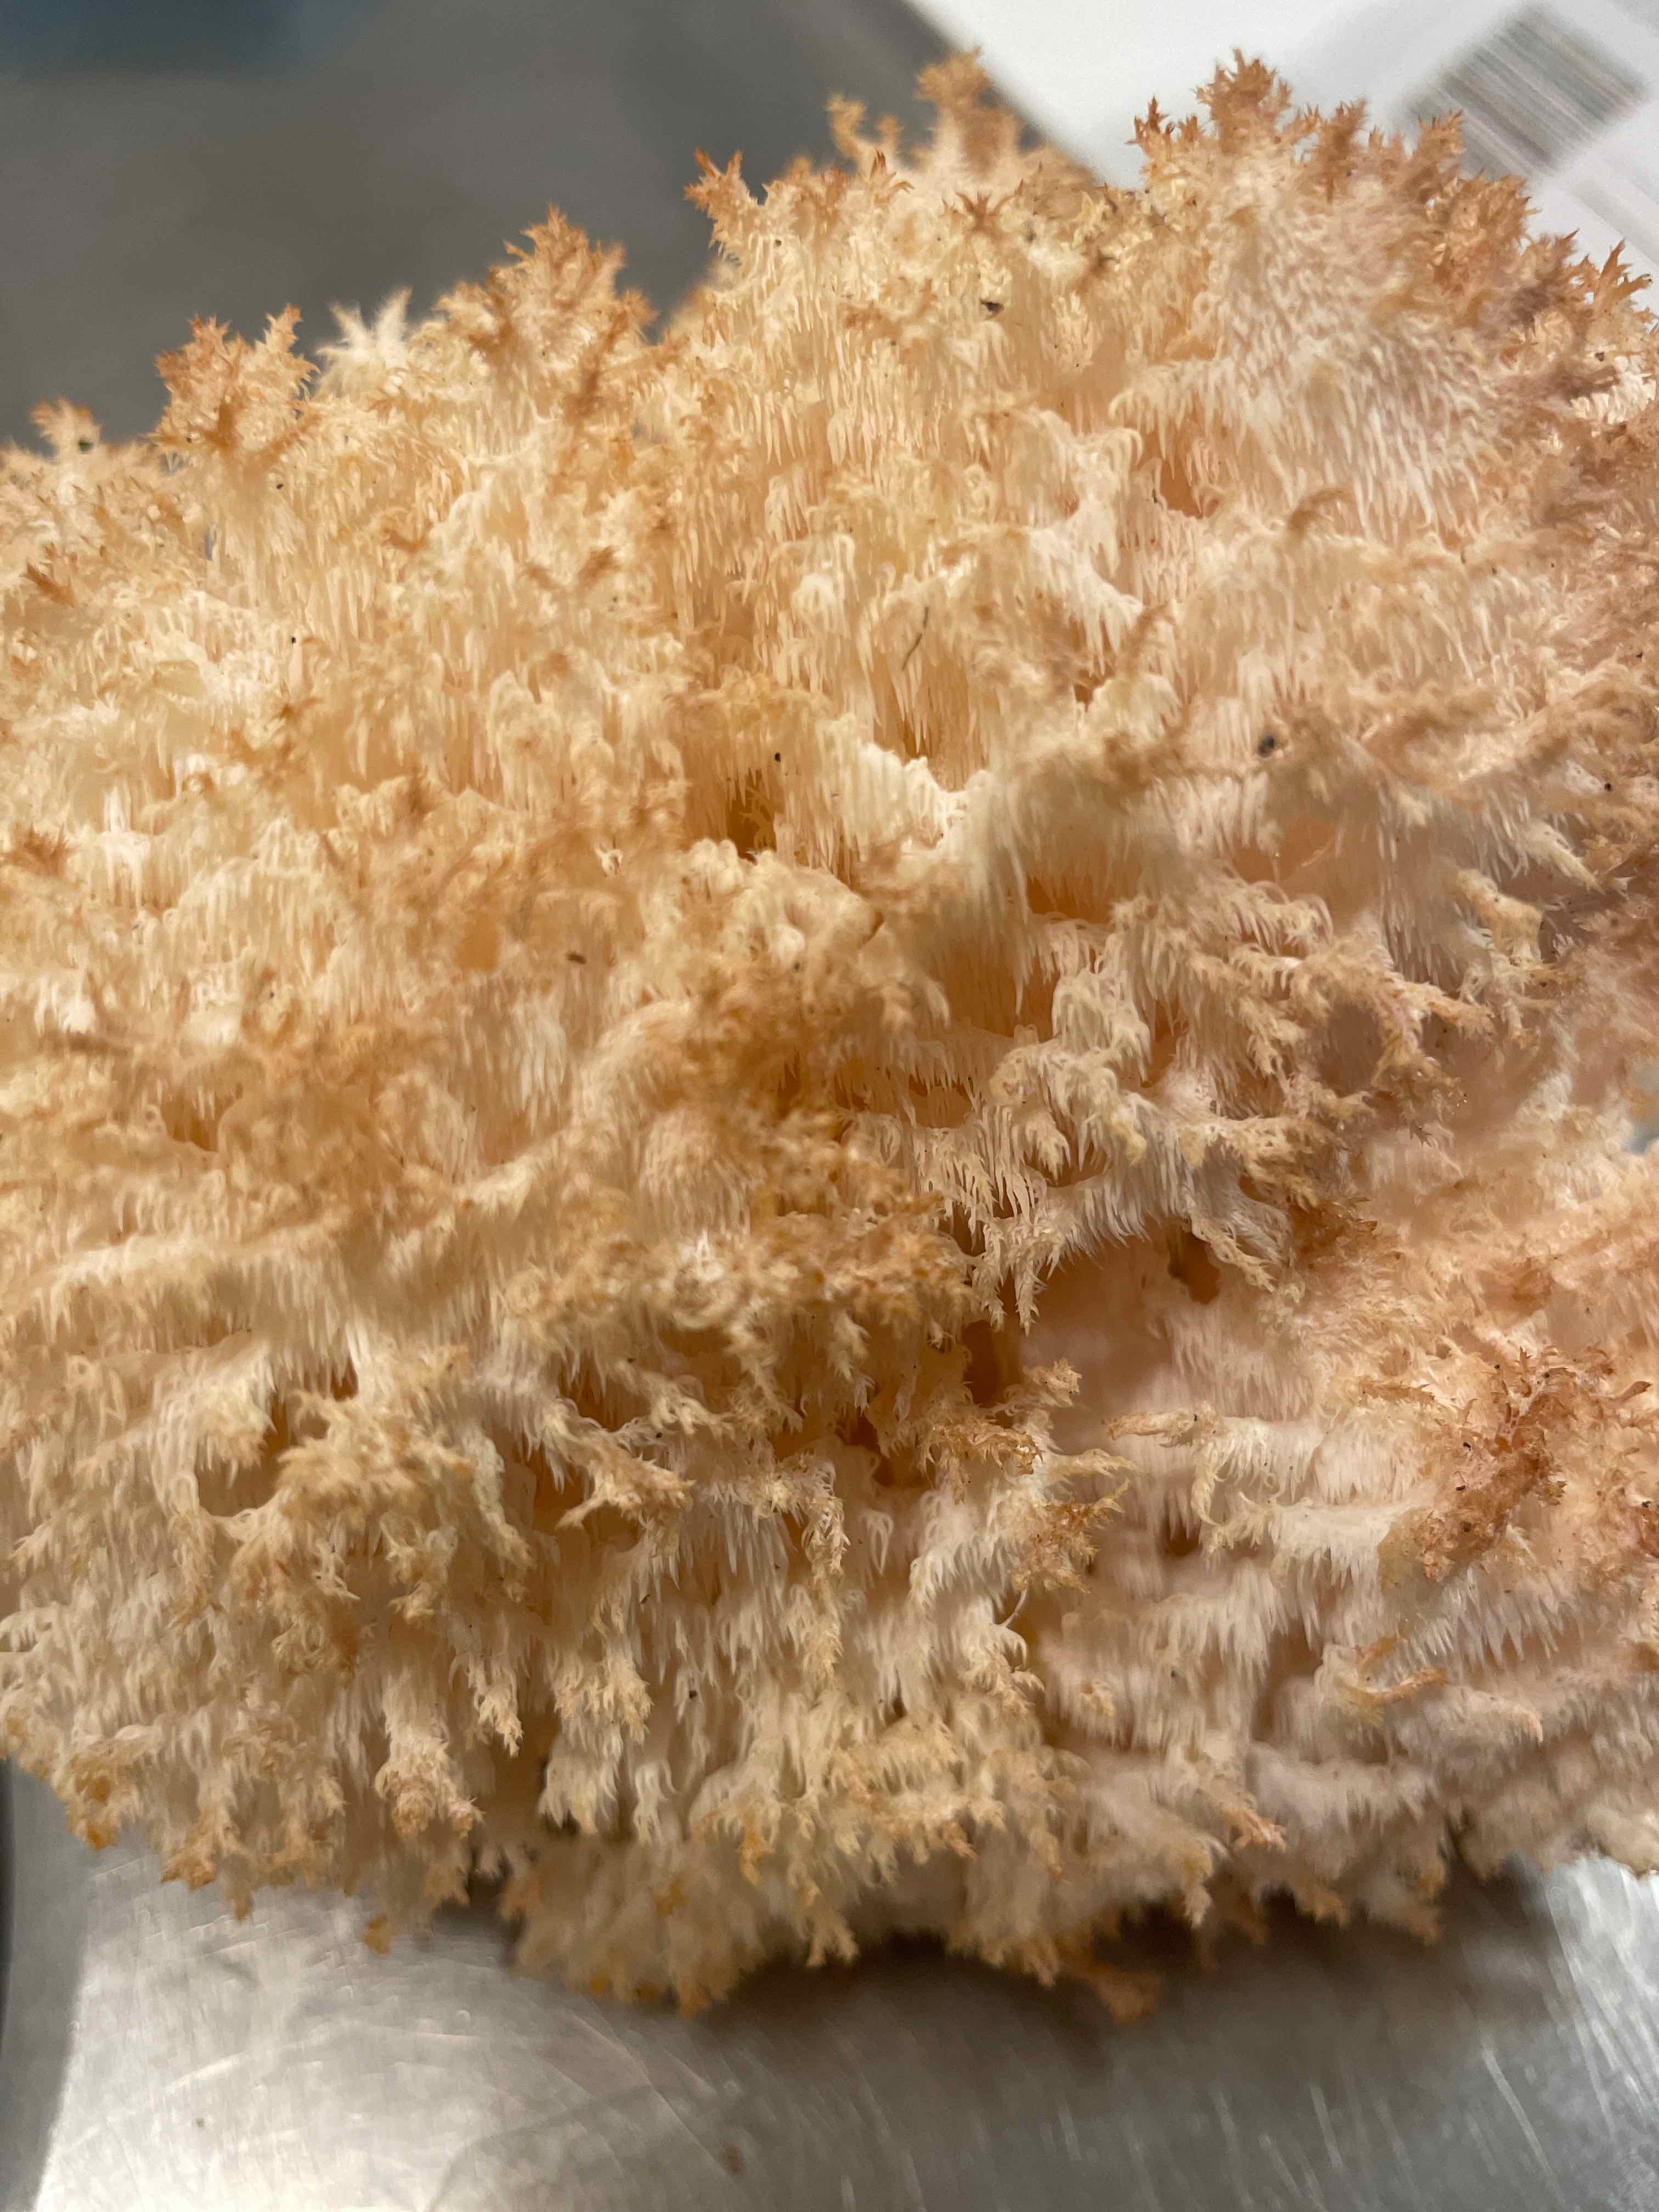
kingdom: Fungi
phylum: Basidiomycota
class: Agaricomycetes
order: Russulales
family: Hericiaceae
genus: Hericium
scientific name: Hericium coralloides
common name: koralpigsvamp
